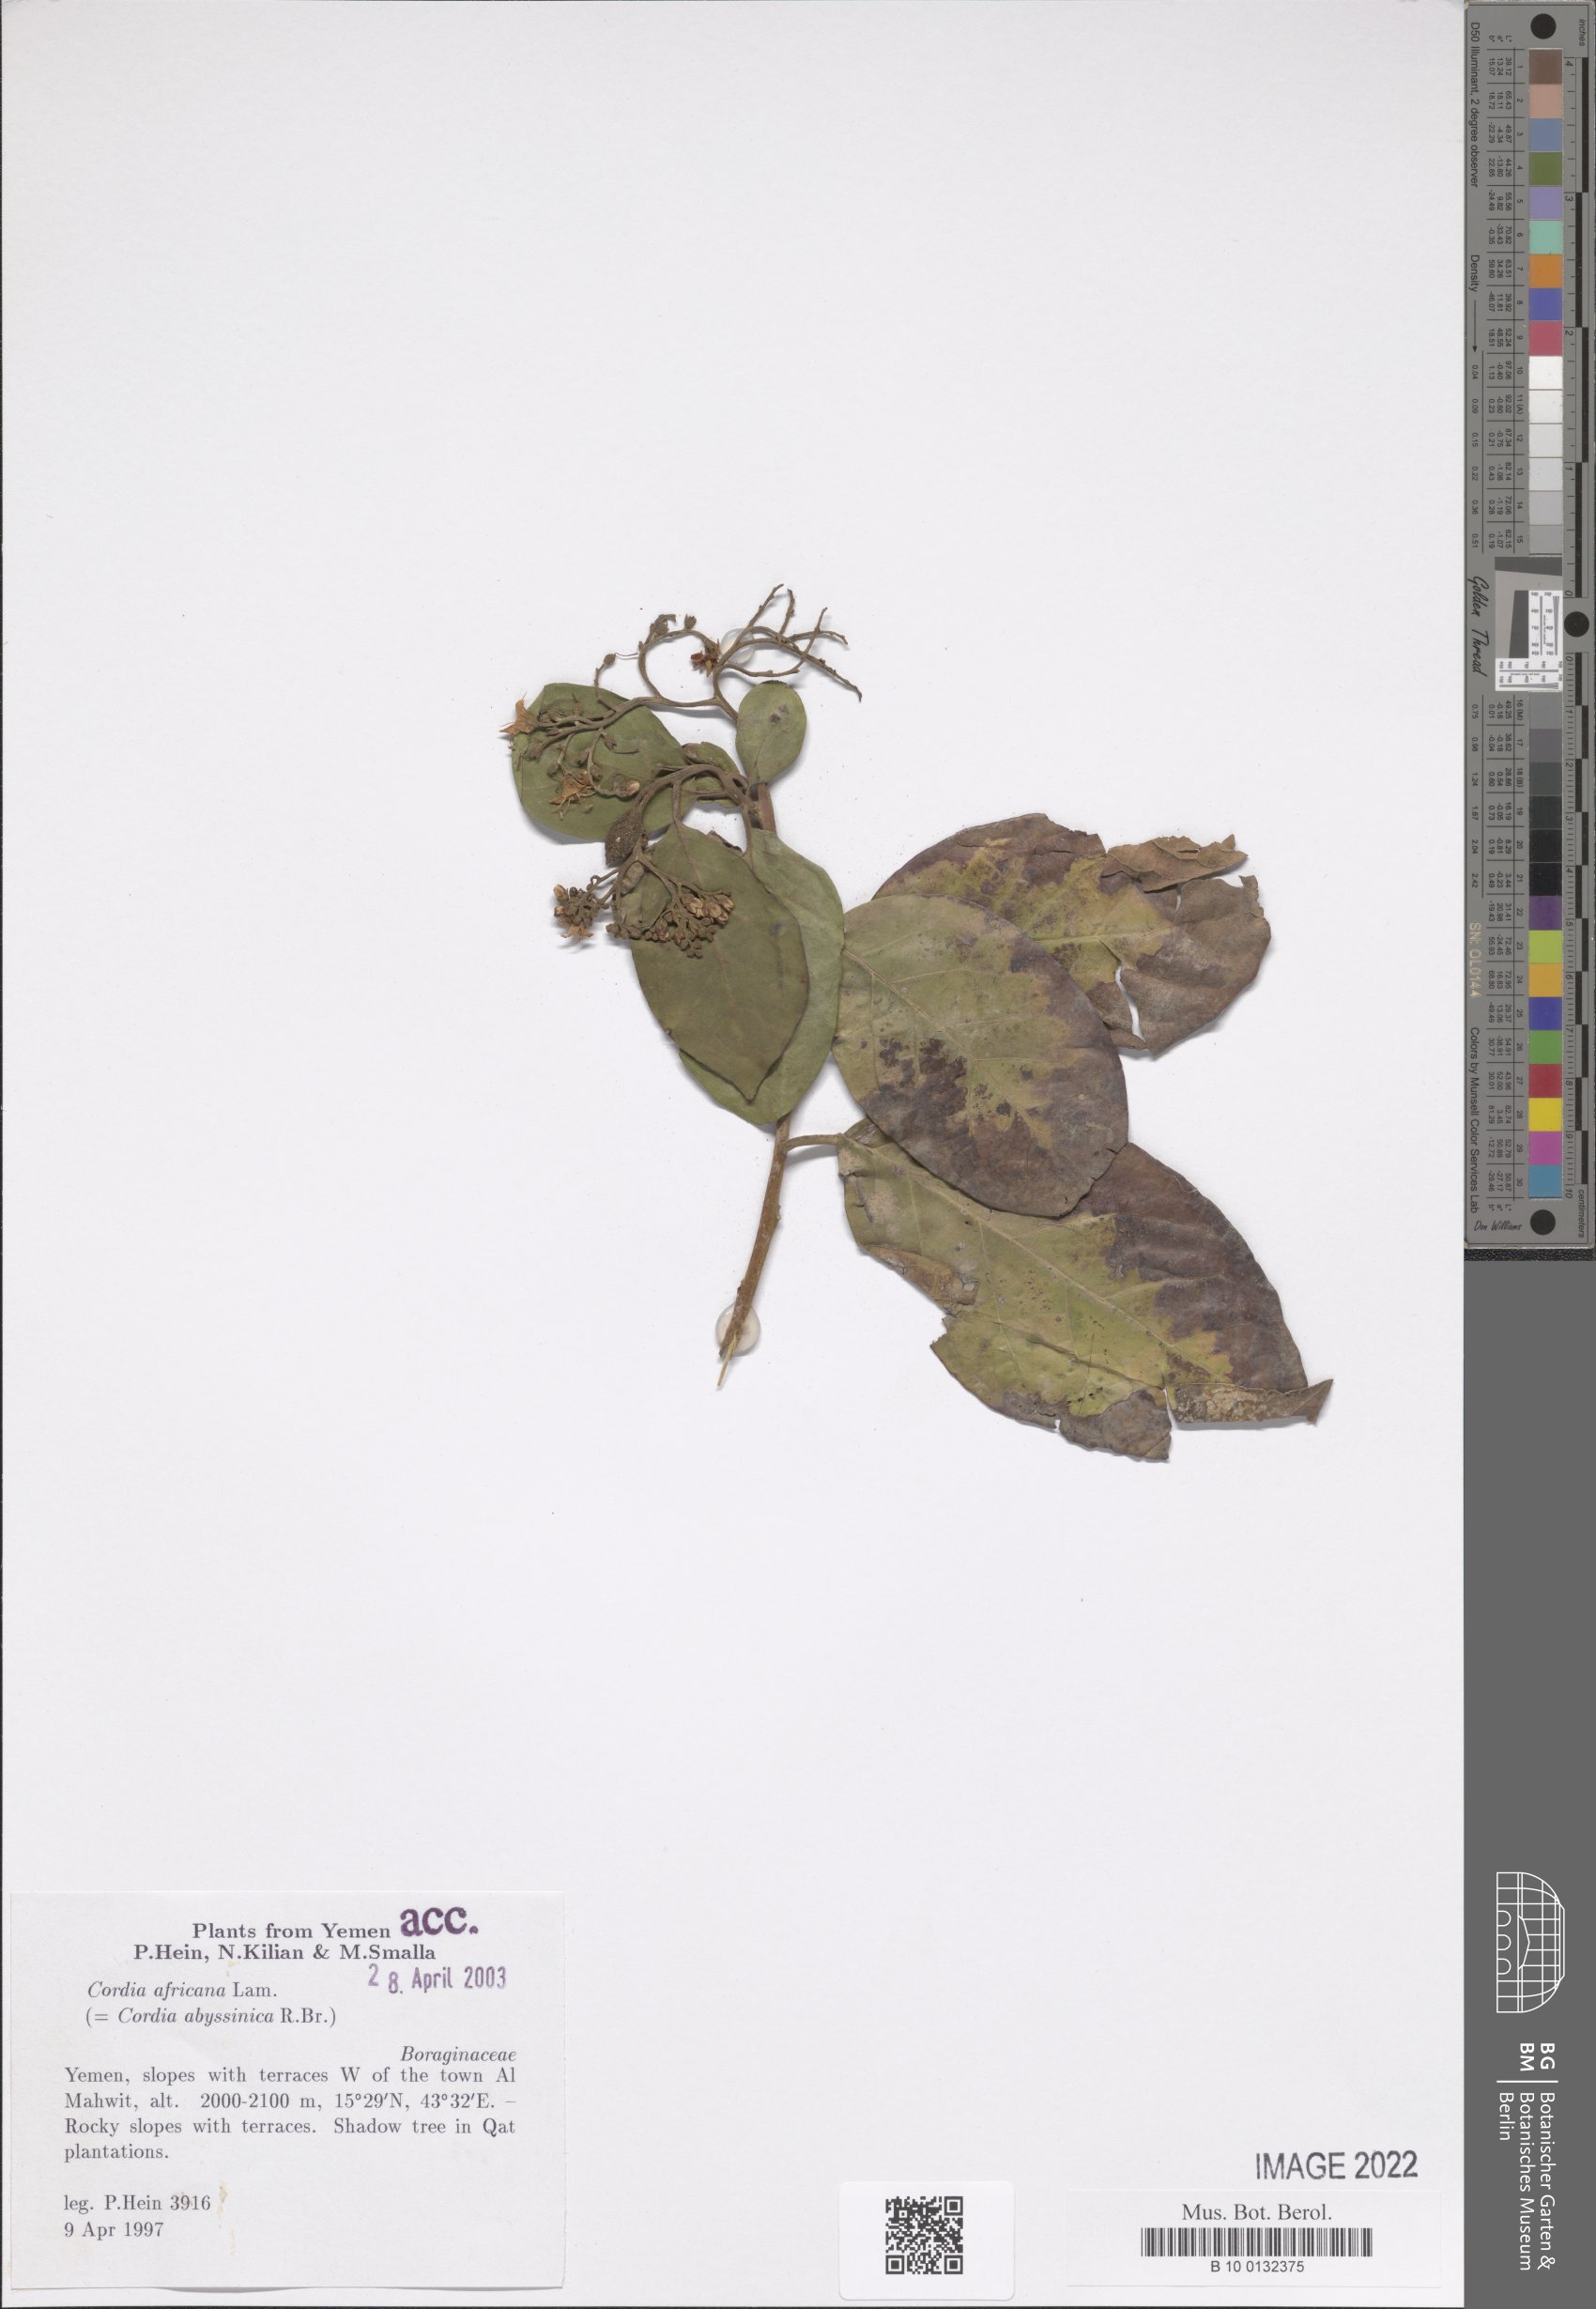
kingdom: Plantae
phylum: Tracheophyta
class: Magnoliopsida
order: Boraginales
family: Cordiaceae
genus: Cordia
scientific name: Cordia africana
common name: Large-leaved cordia
